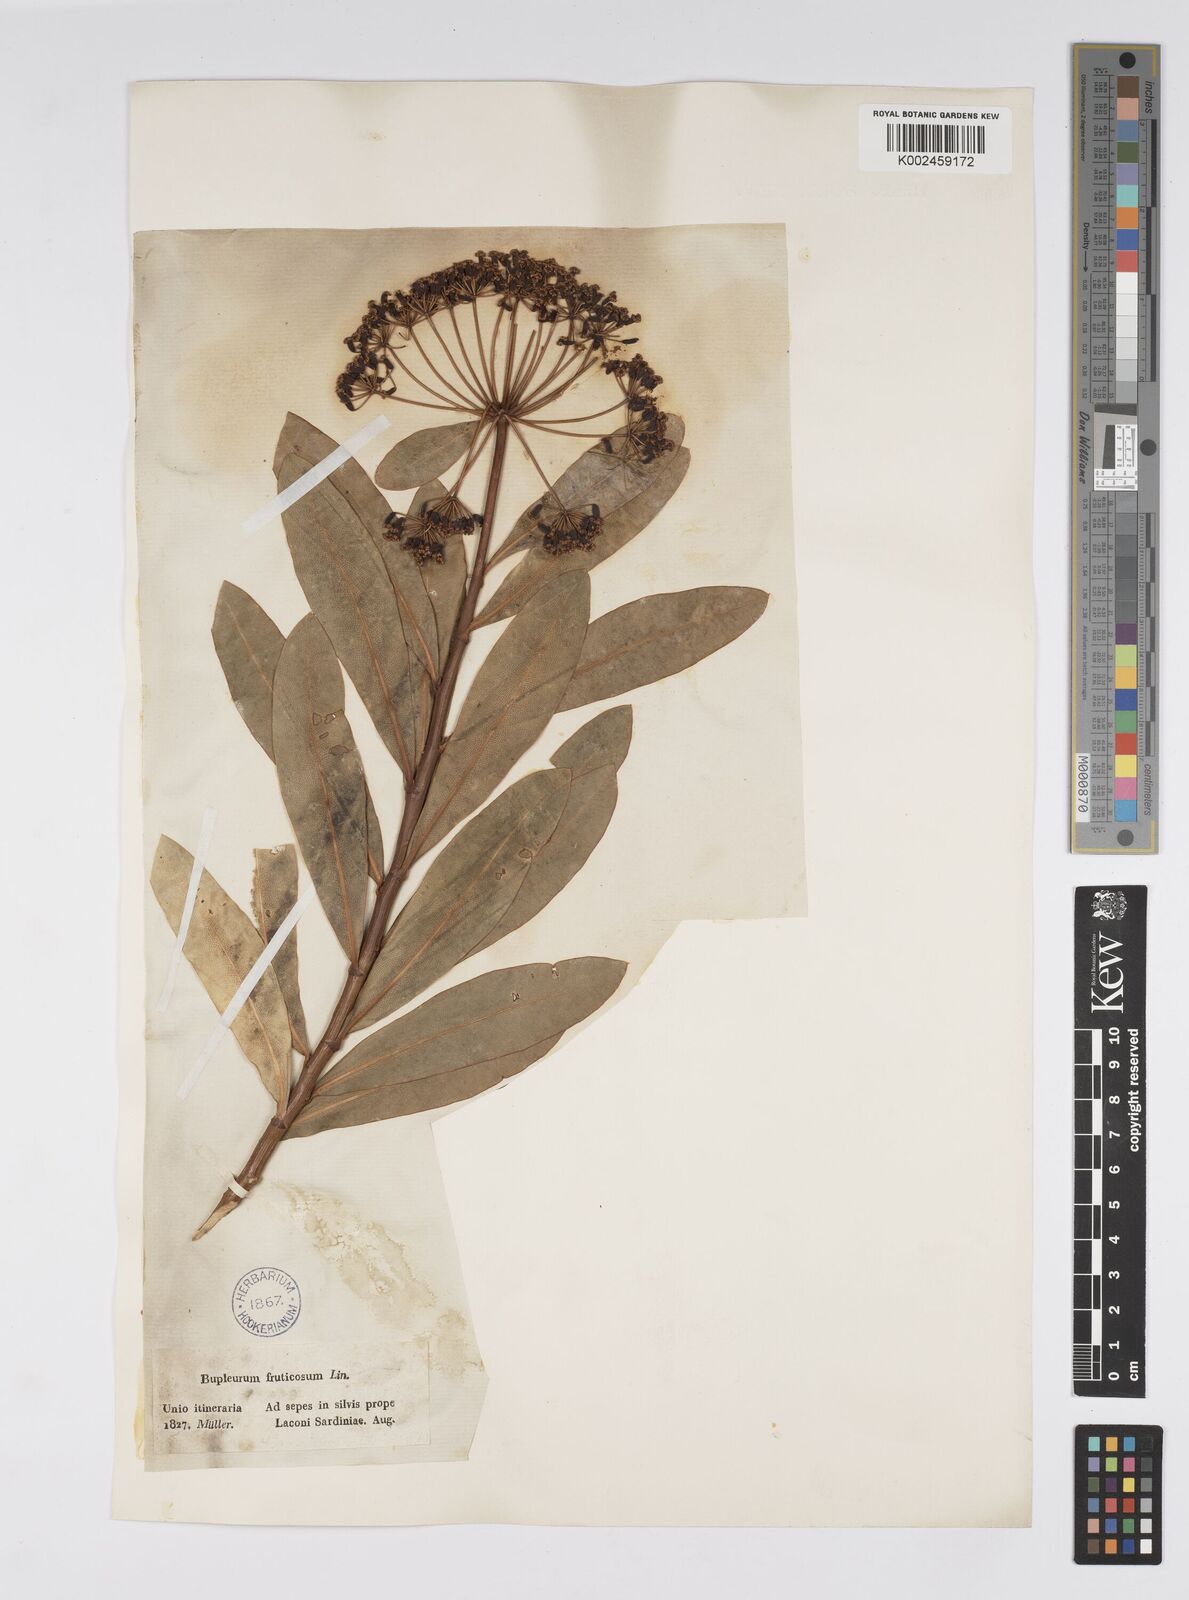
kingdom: Plantae
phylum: Tracheophyta
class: Magnoliopsida
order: Apiales
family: Apiaceae
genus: Bupleurum
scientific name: Bupleurum fruticosum
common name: Shrubby hare's-ear
